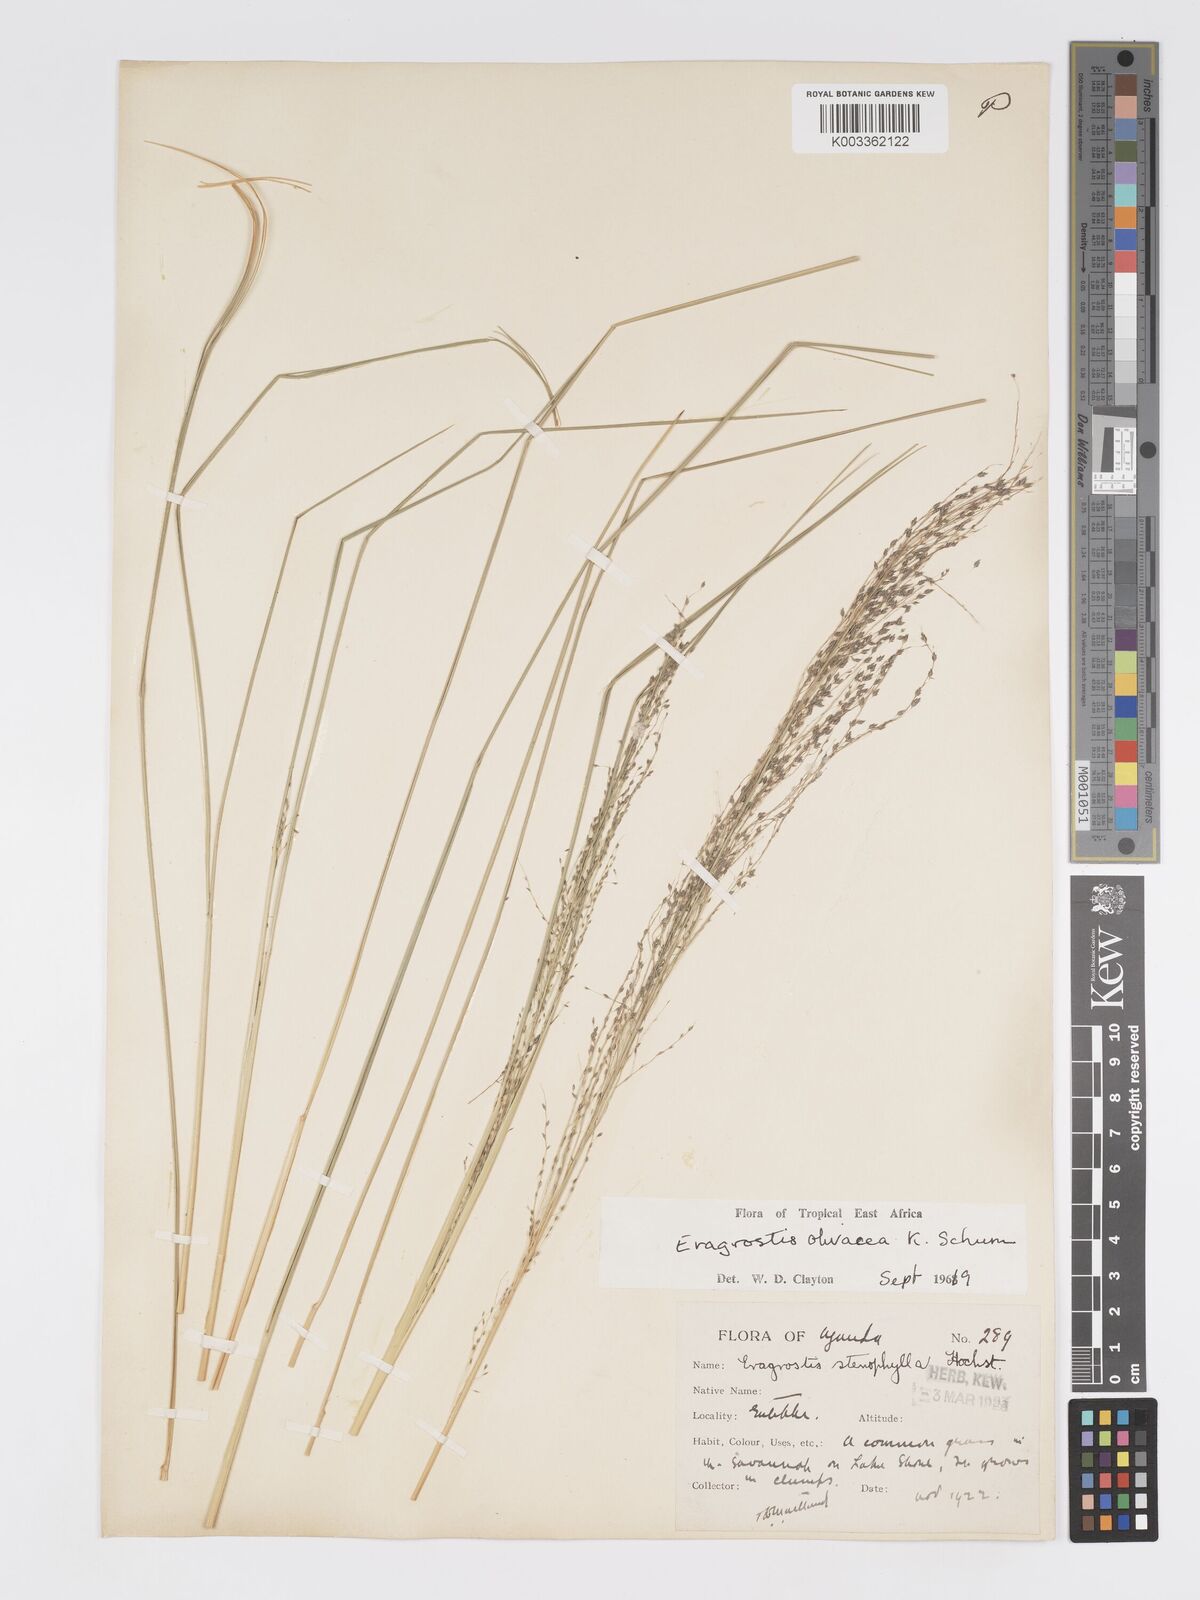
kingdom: Plantae
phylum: Tracheophyta
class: Liliopsida
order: Poales
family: Poaceae
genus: Eragrostis
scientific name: Eragrostis olivacea
